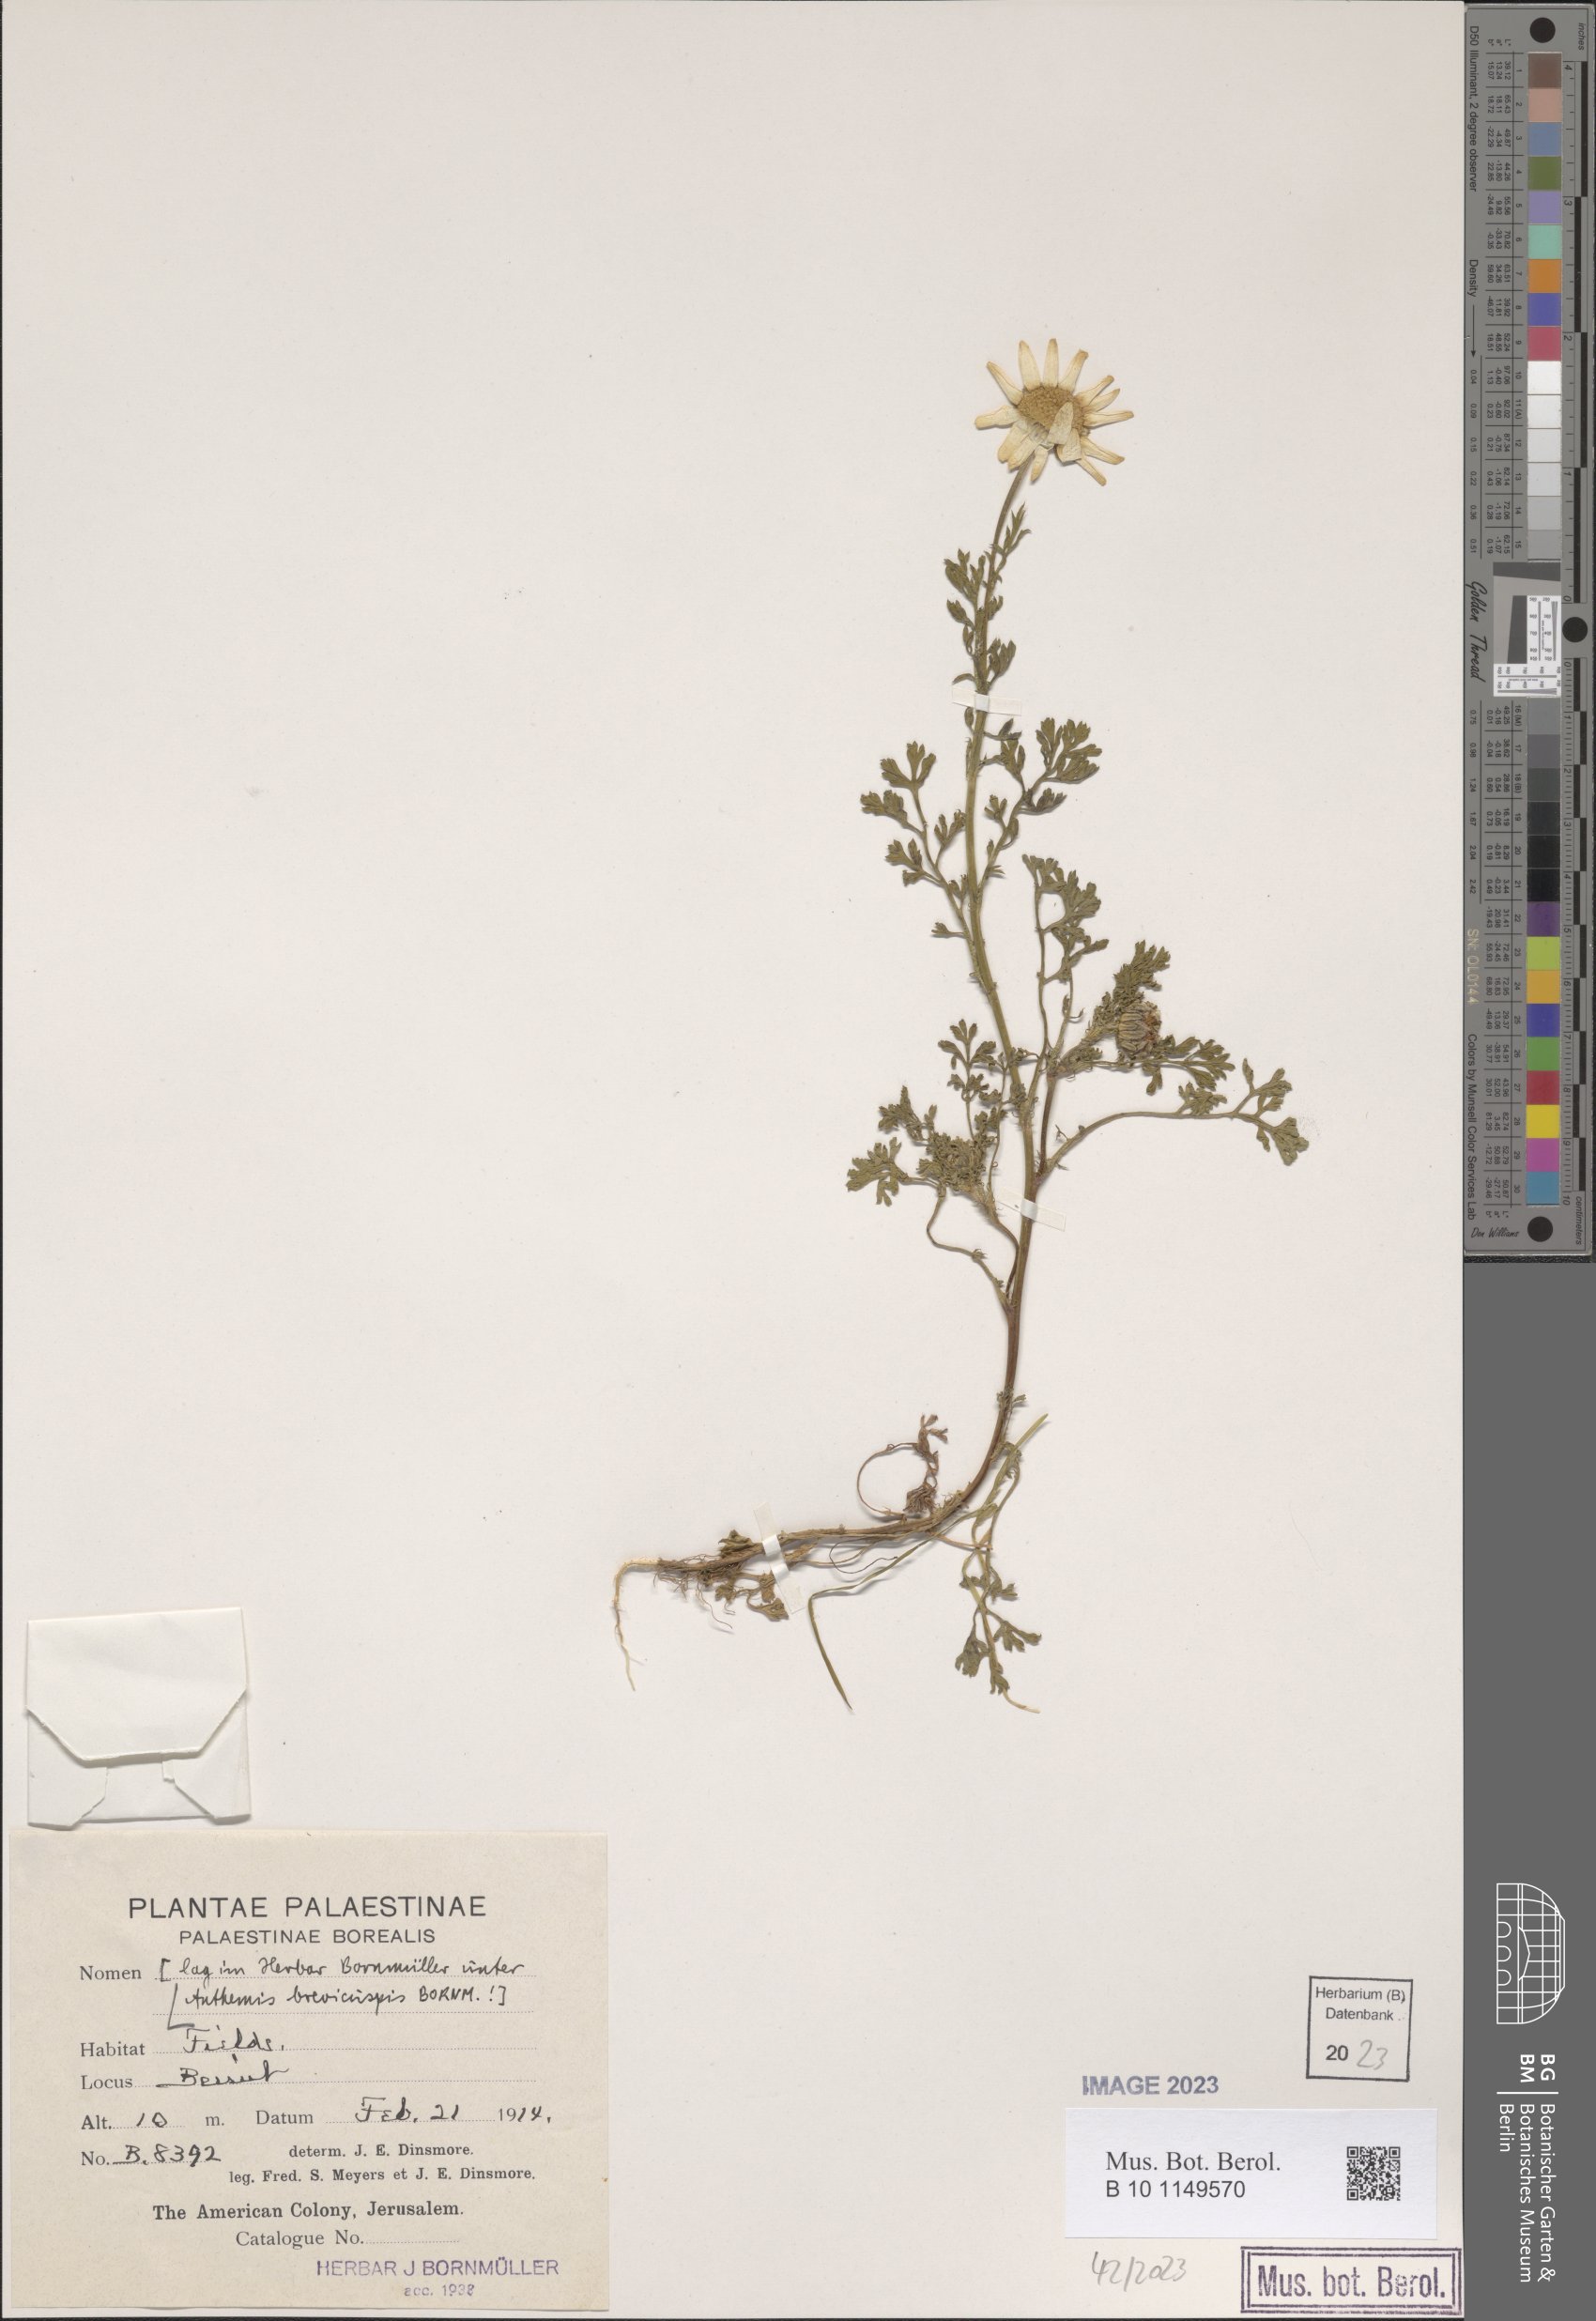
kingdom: Plantae
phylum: Tracheophyta
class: Magnoliopsida
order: Asterales
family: Asteraceae
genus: Cota
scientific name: Cota brevicuspis
